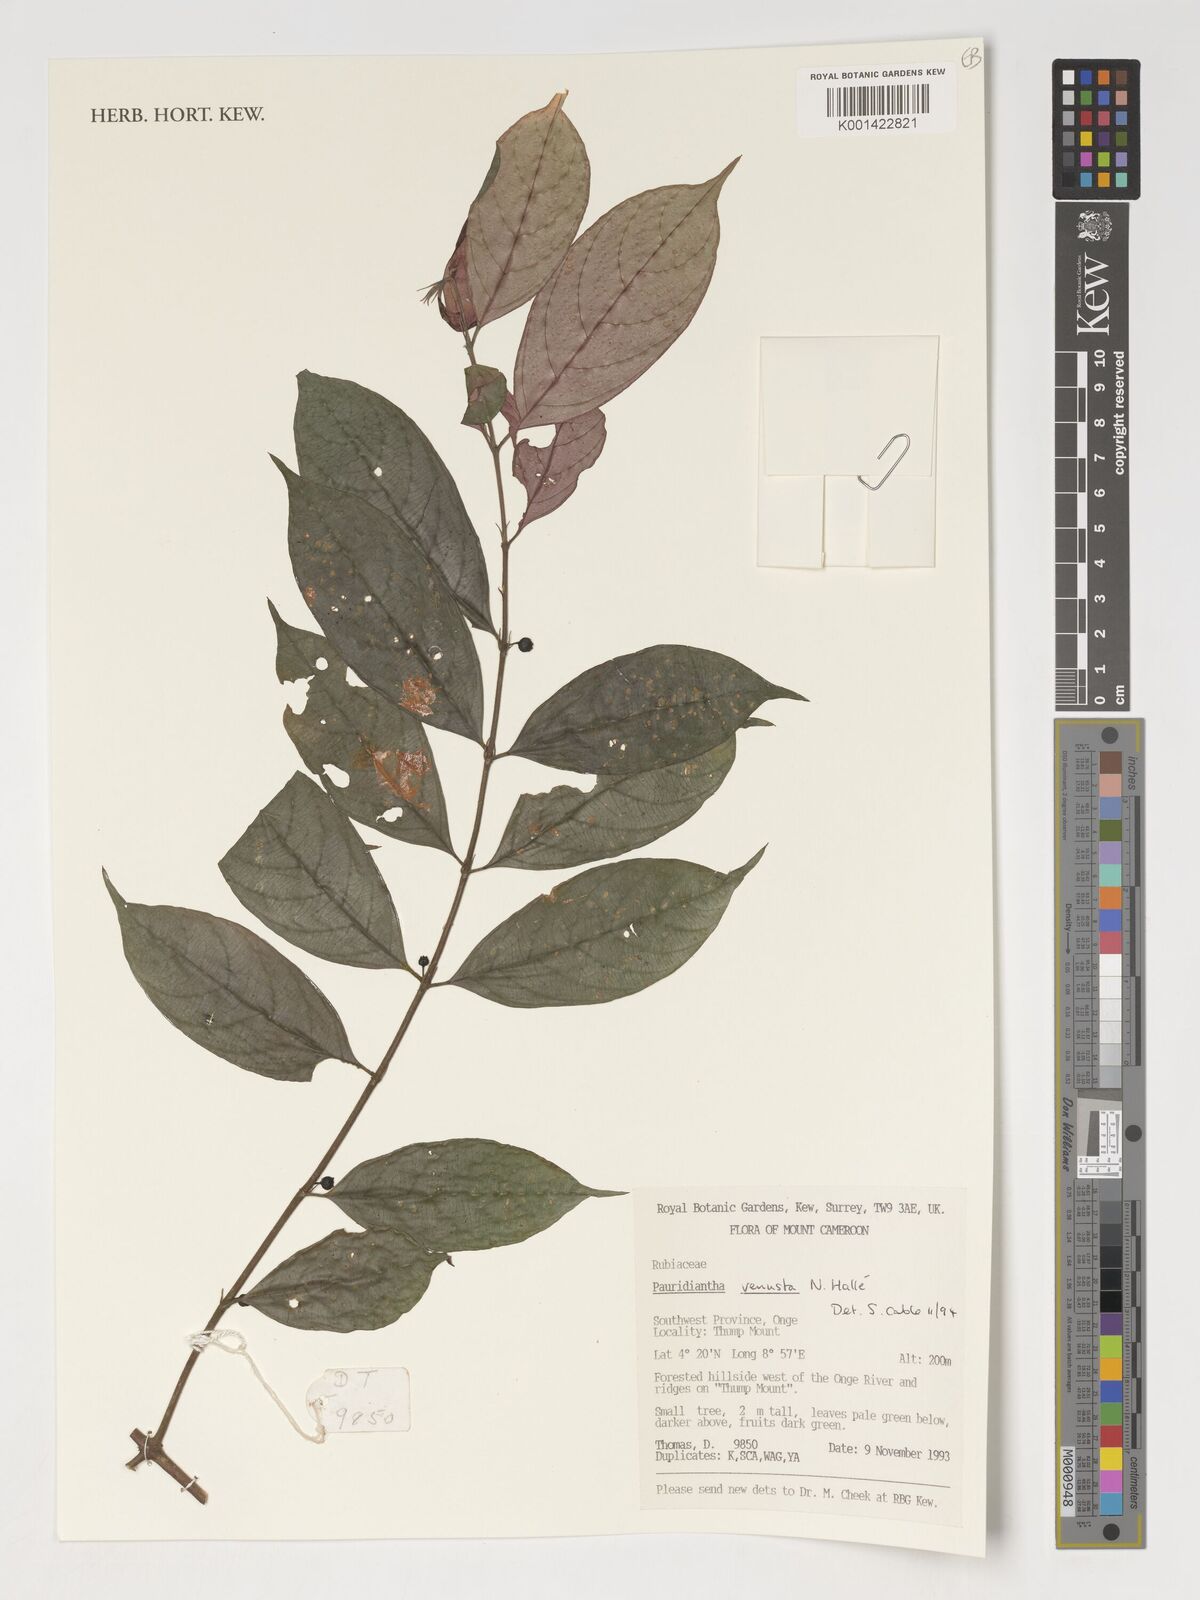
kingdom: Plantae
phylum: Tracheophyta
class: Magnoliopsida
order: Gentianales
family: Rubiaceae
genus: Pauridiantha
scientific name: Pauridiantha talbotii
